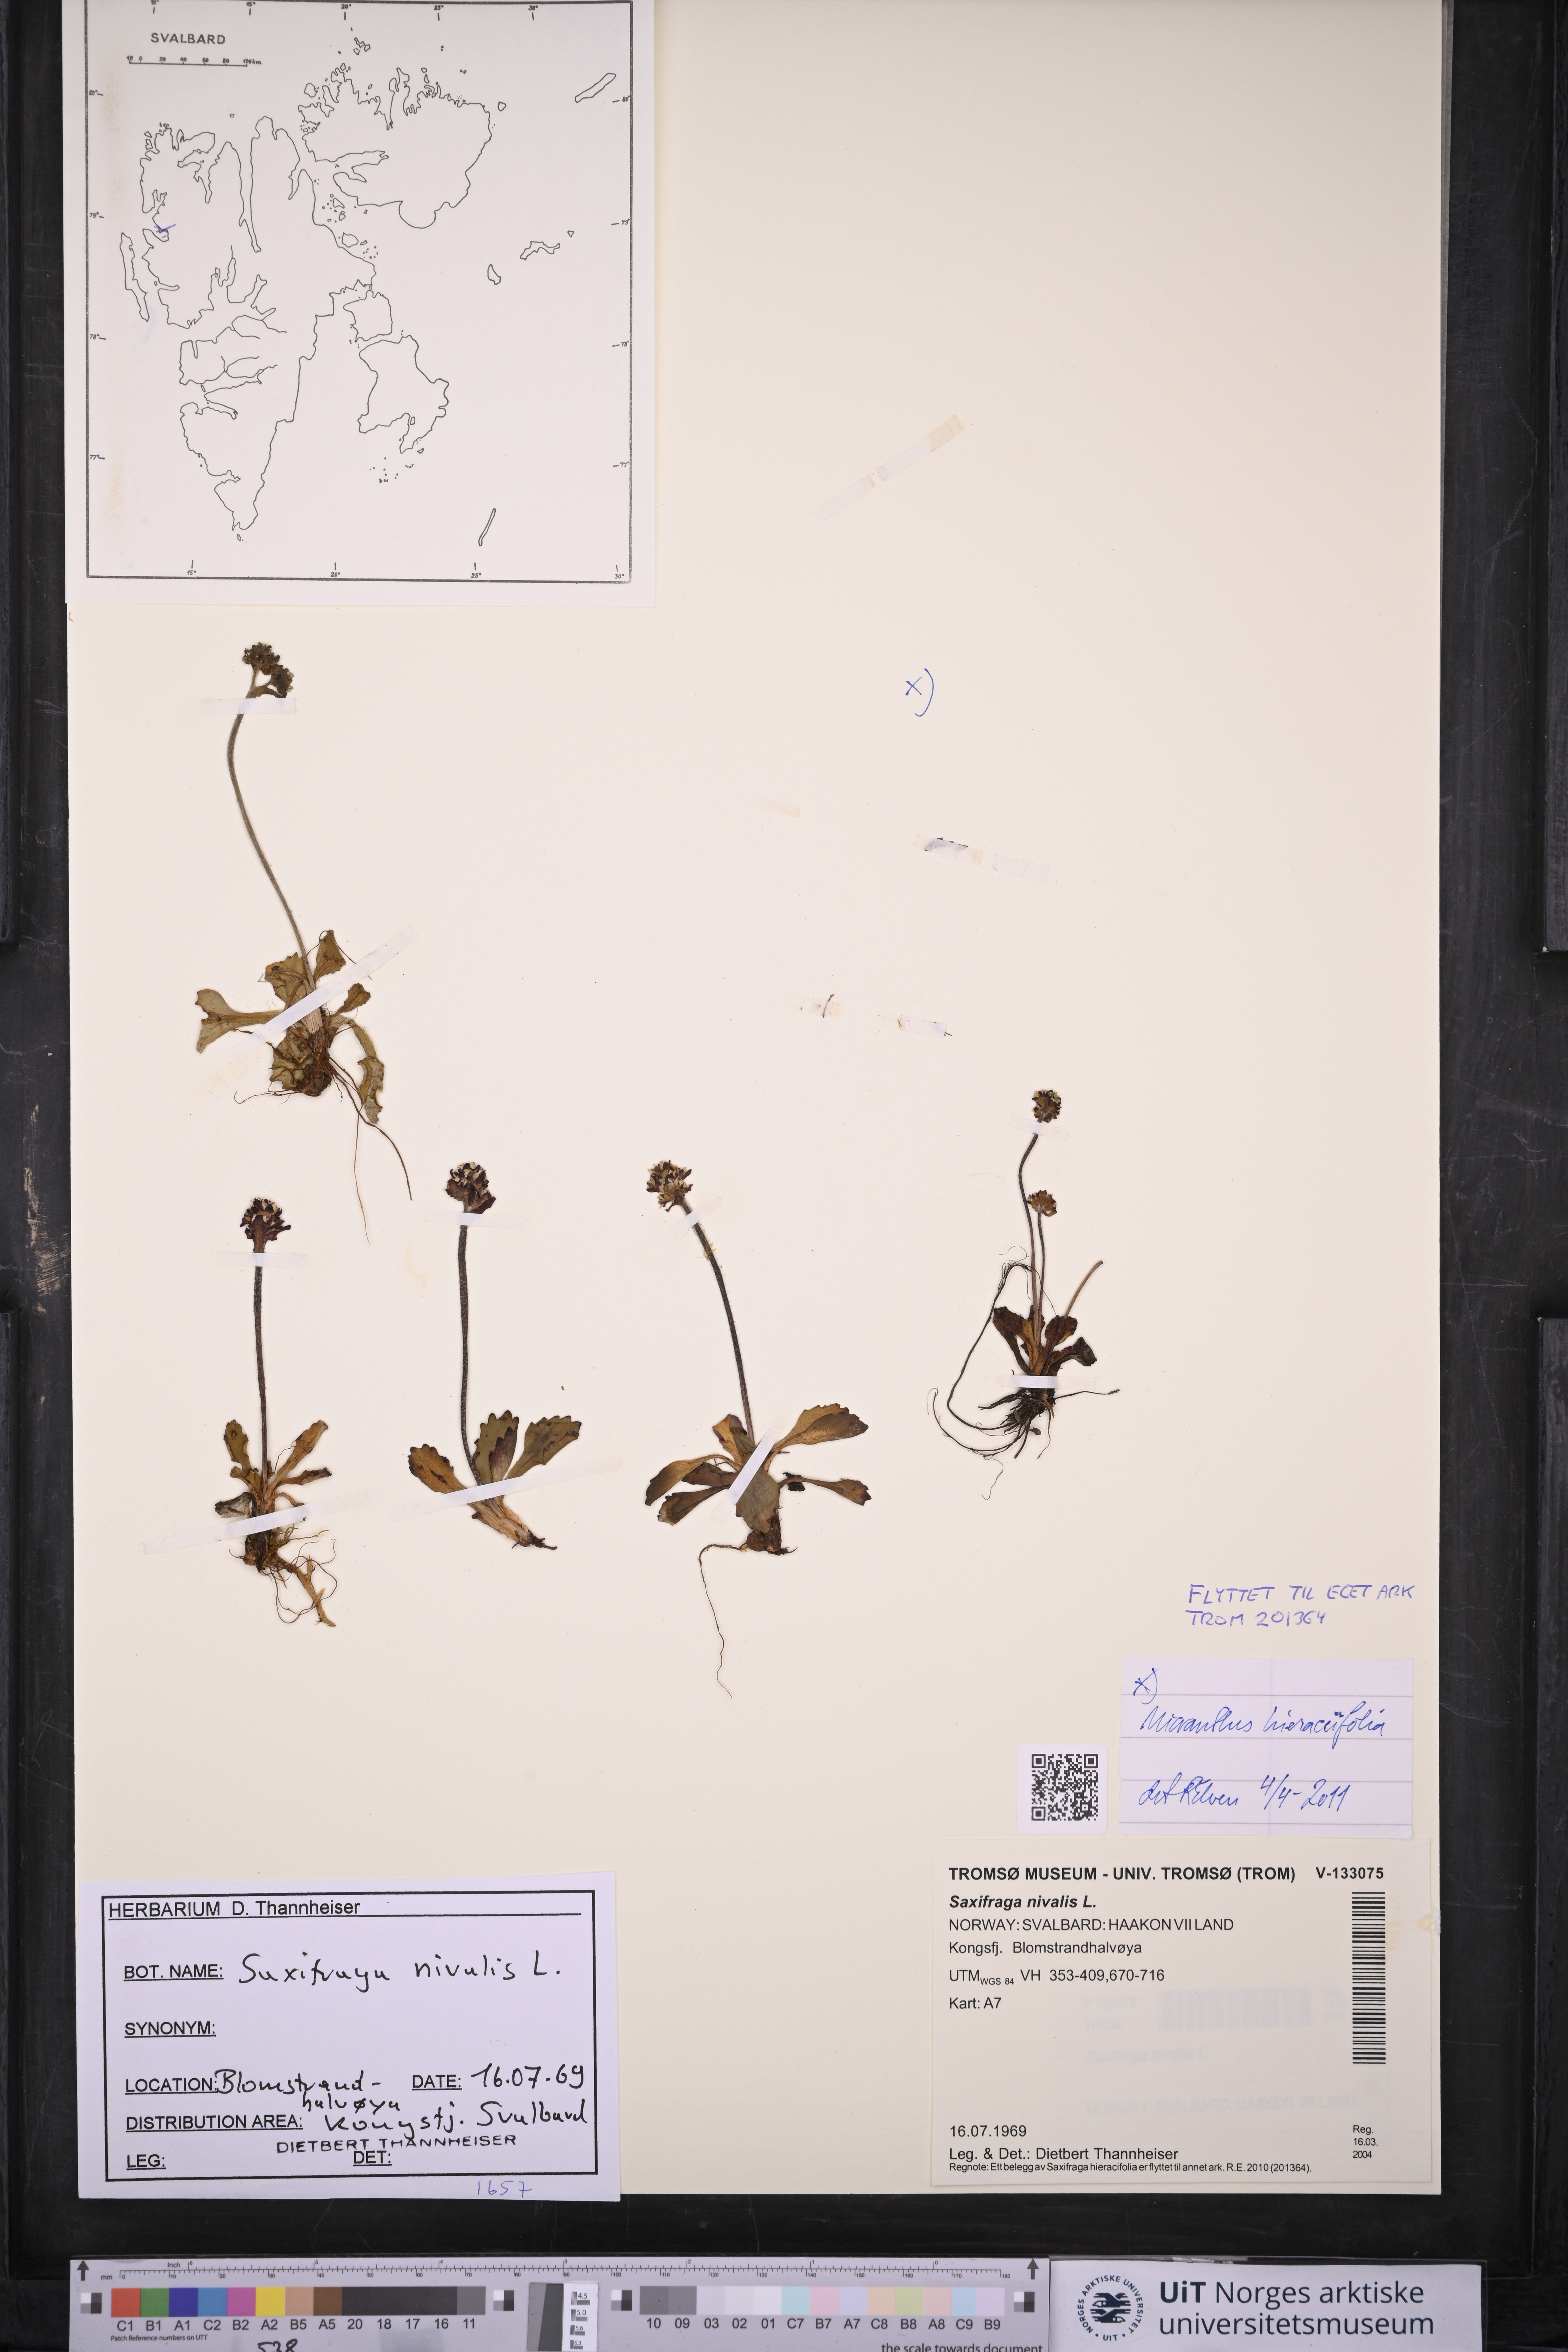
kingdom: Plantae
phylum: Tracheophyta
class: Magnoliopsida
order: Saxifragales
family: Saxifragaceae
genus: Micranthes
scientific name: Micranthes nivalis
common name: Alpine saxifrage
